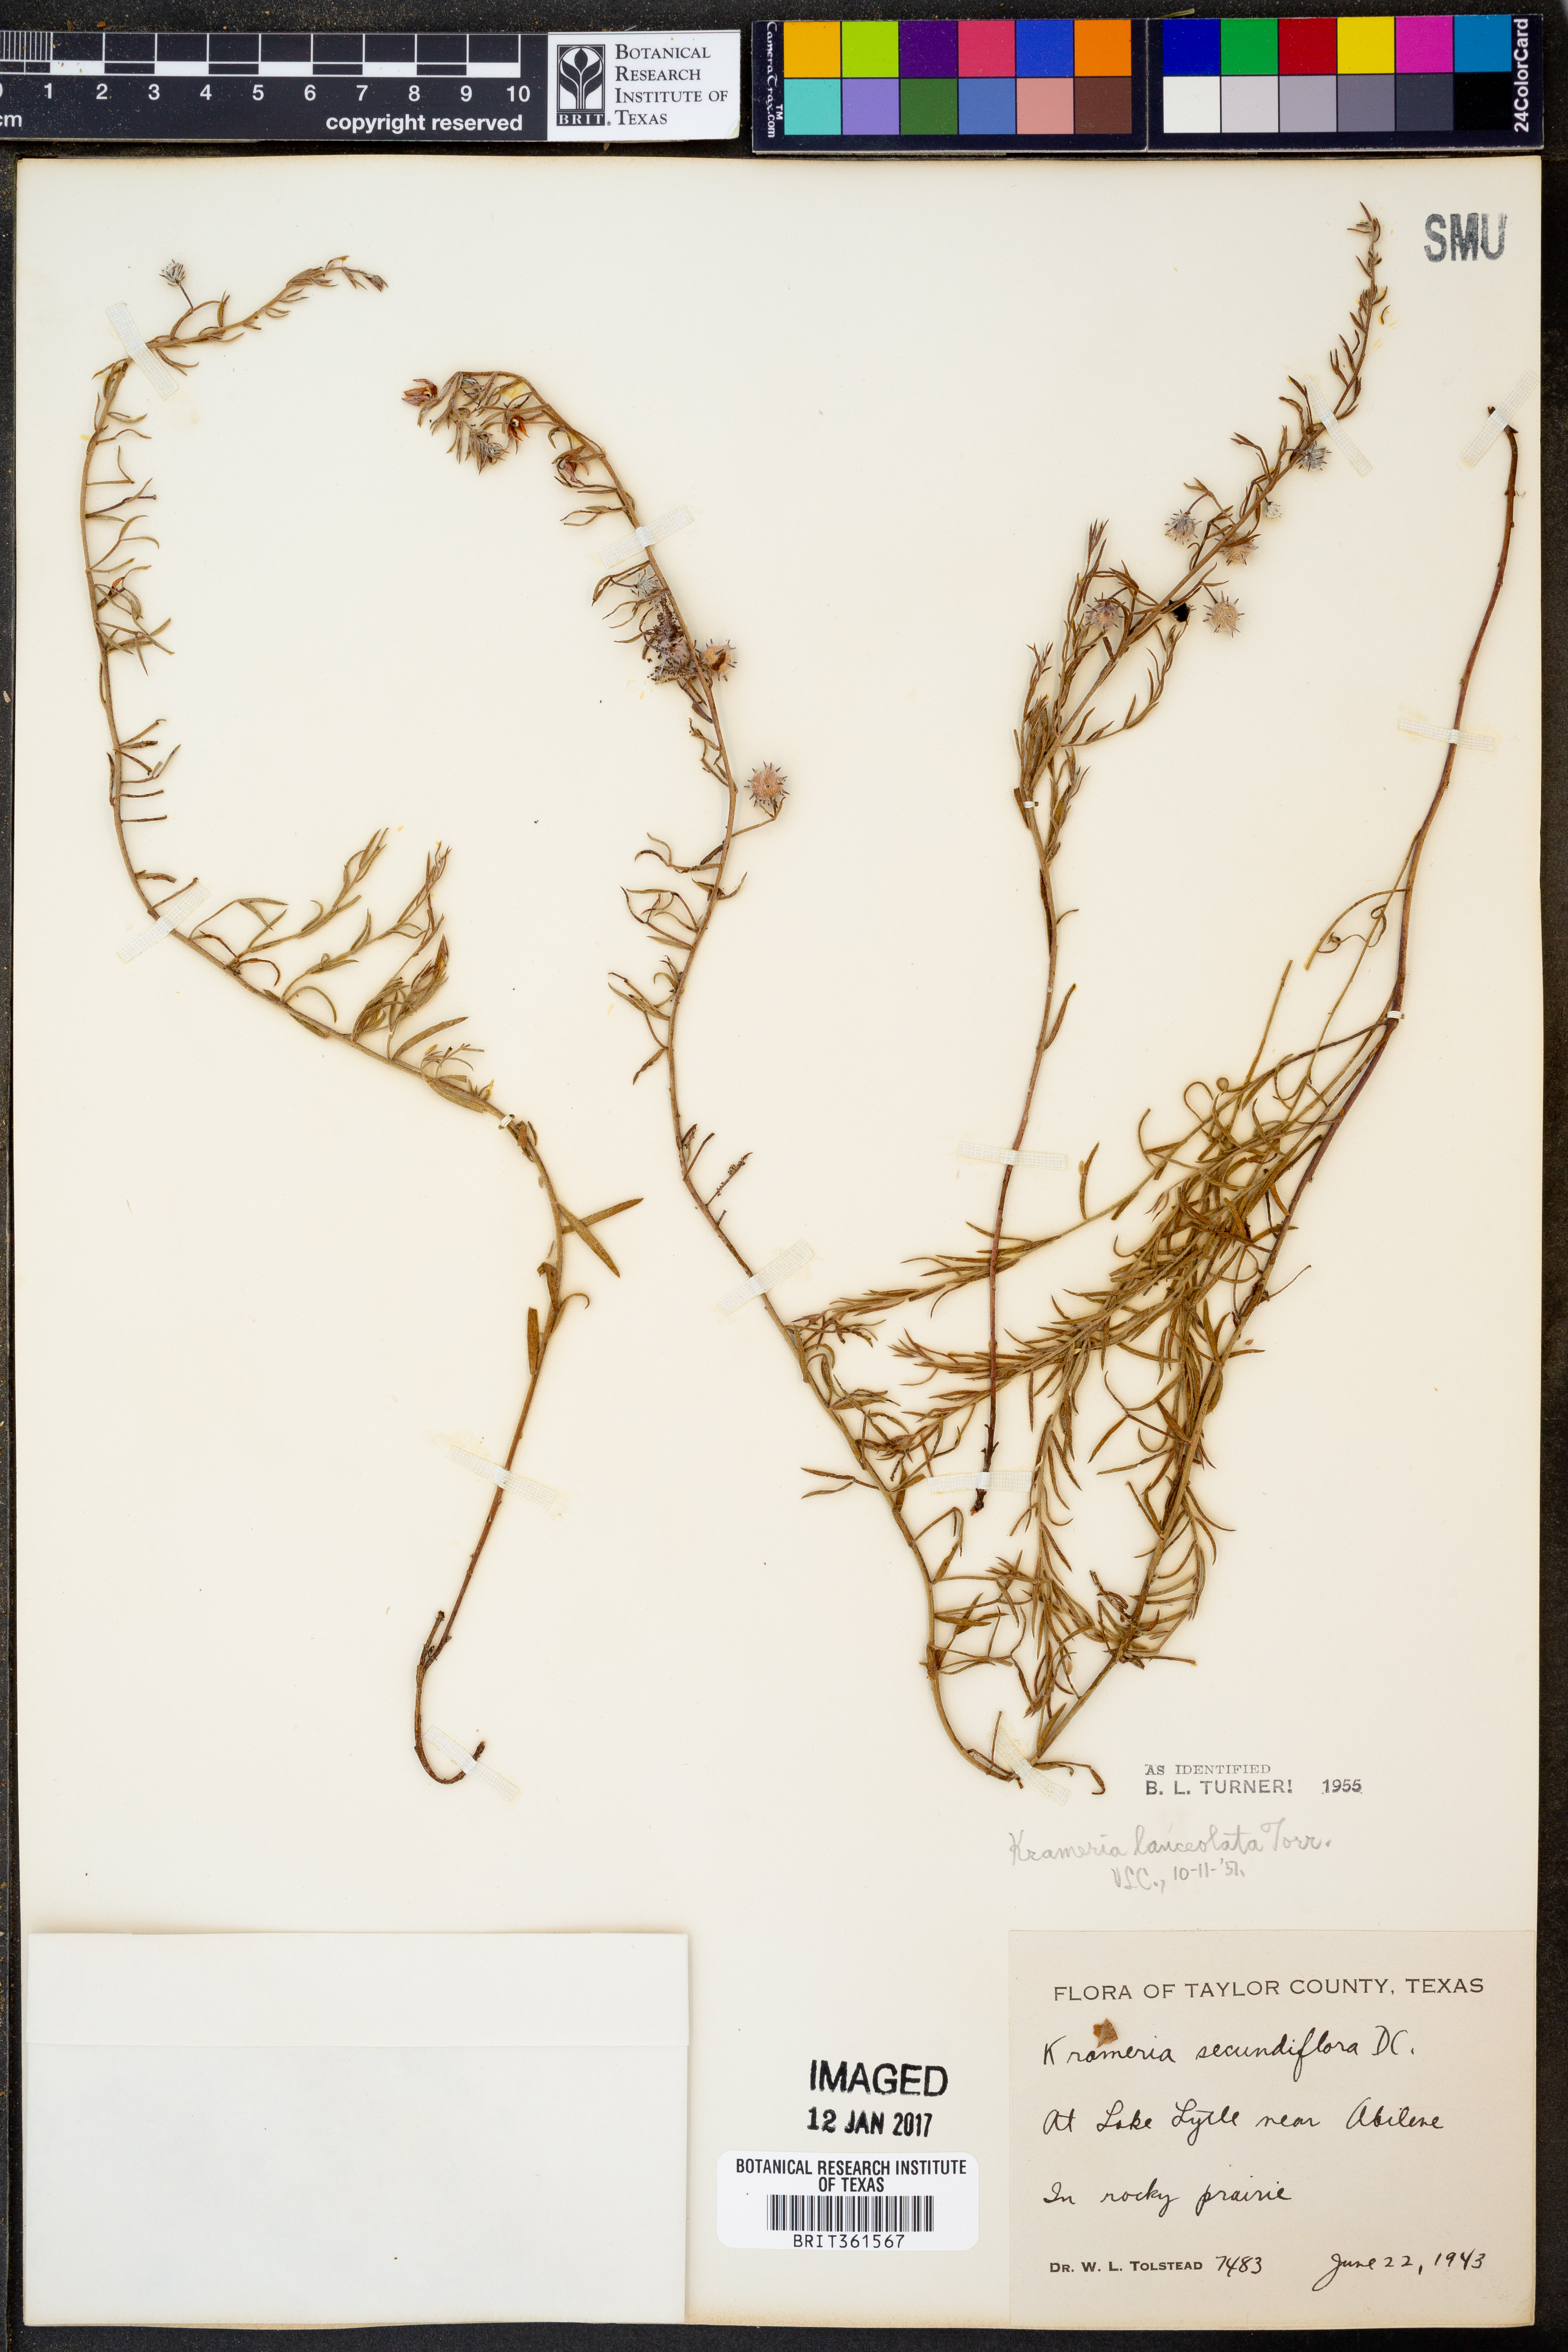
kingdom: Plantae
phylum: Tracheophyta
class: Magnoliopsida
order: Zygophyllales
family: Krameriaceae
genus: Krameria
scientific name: Krameria lanceolata
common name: Ratany
